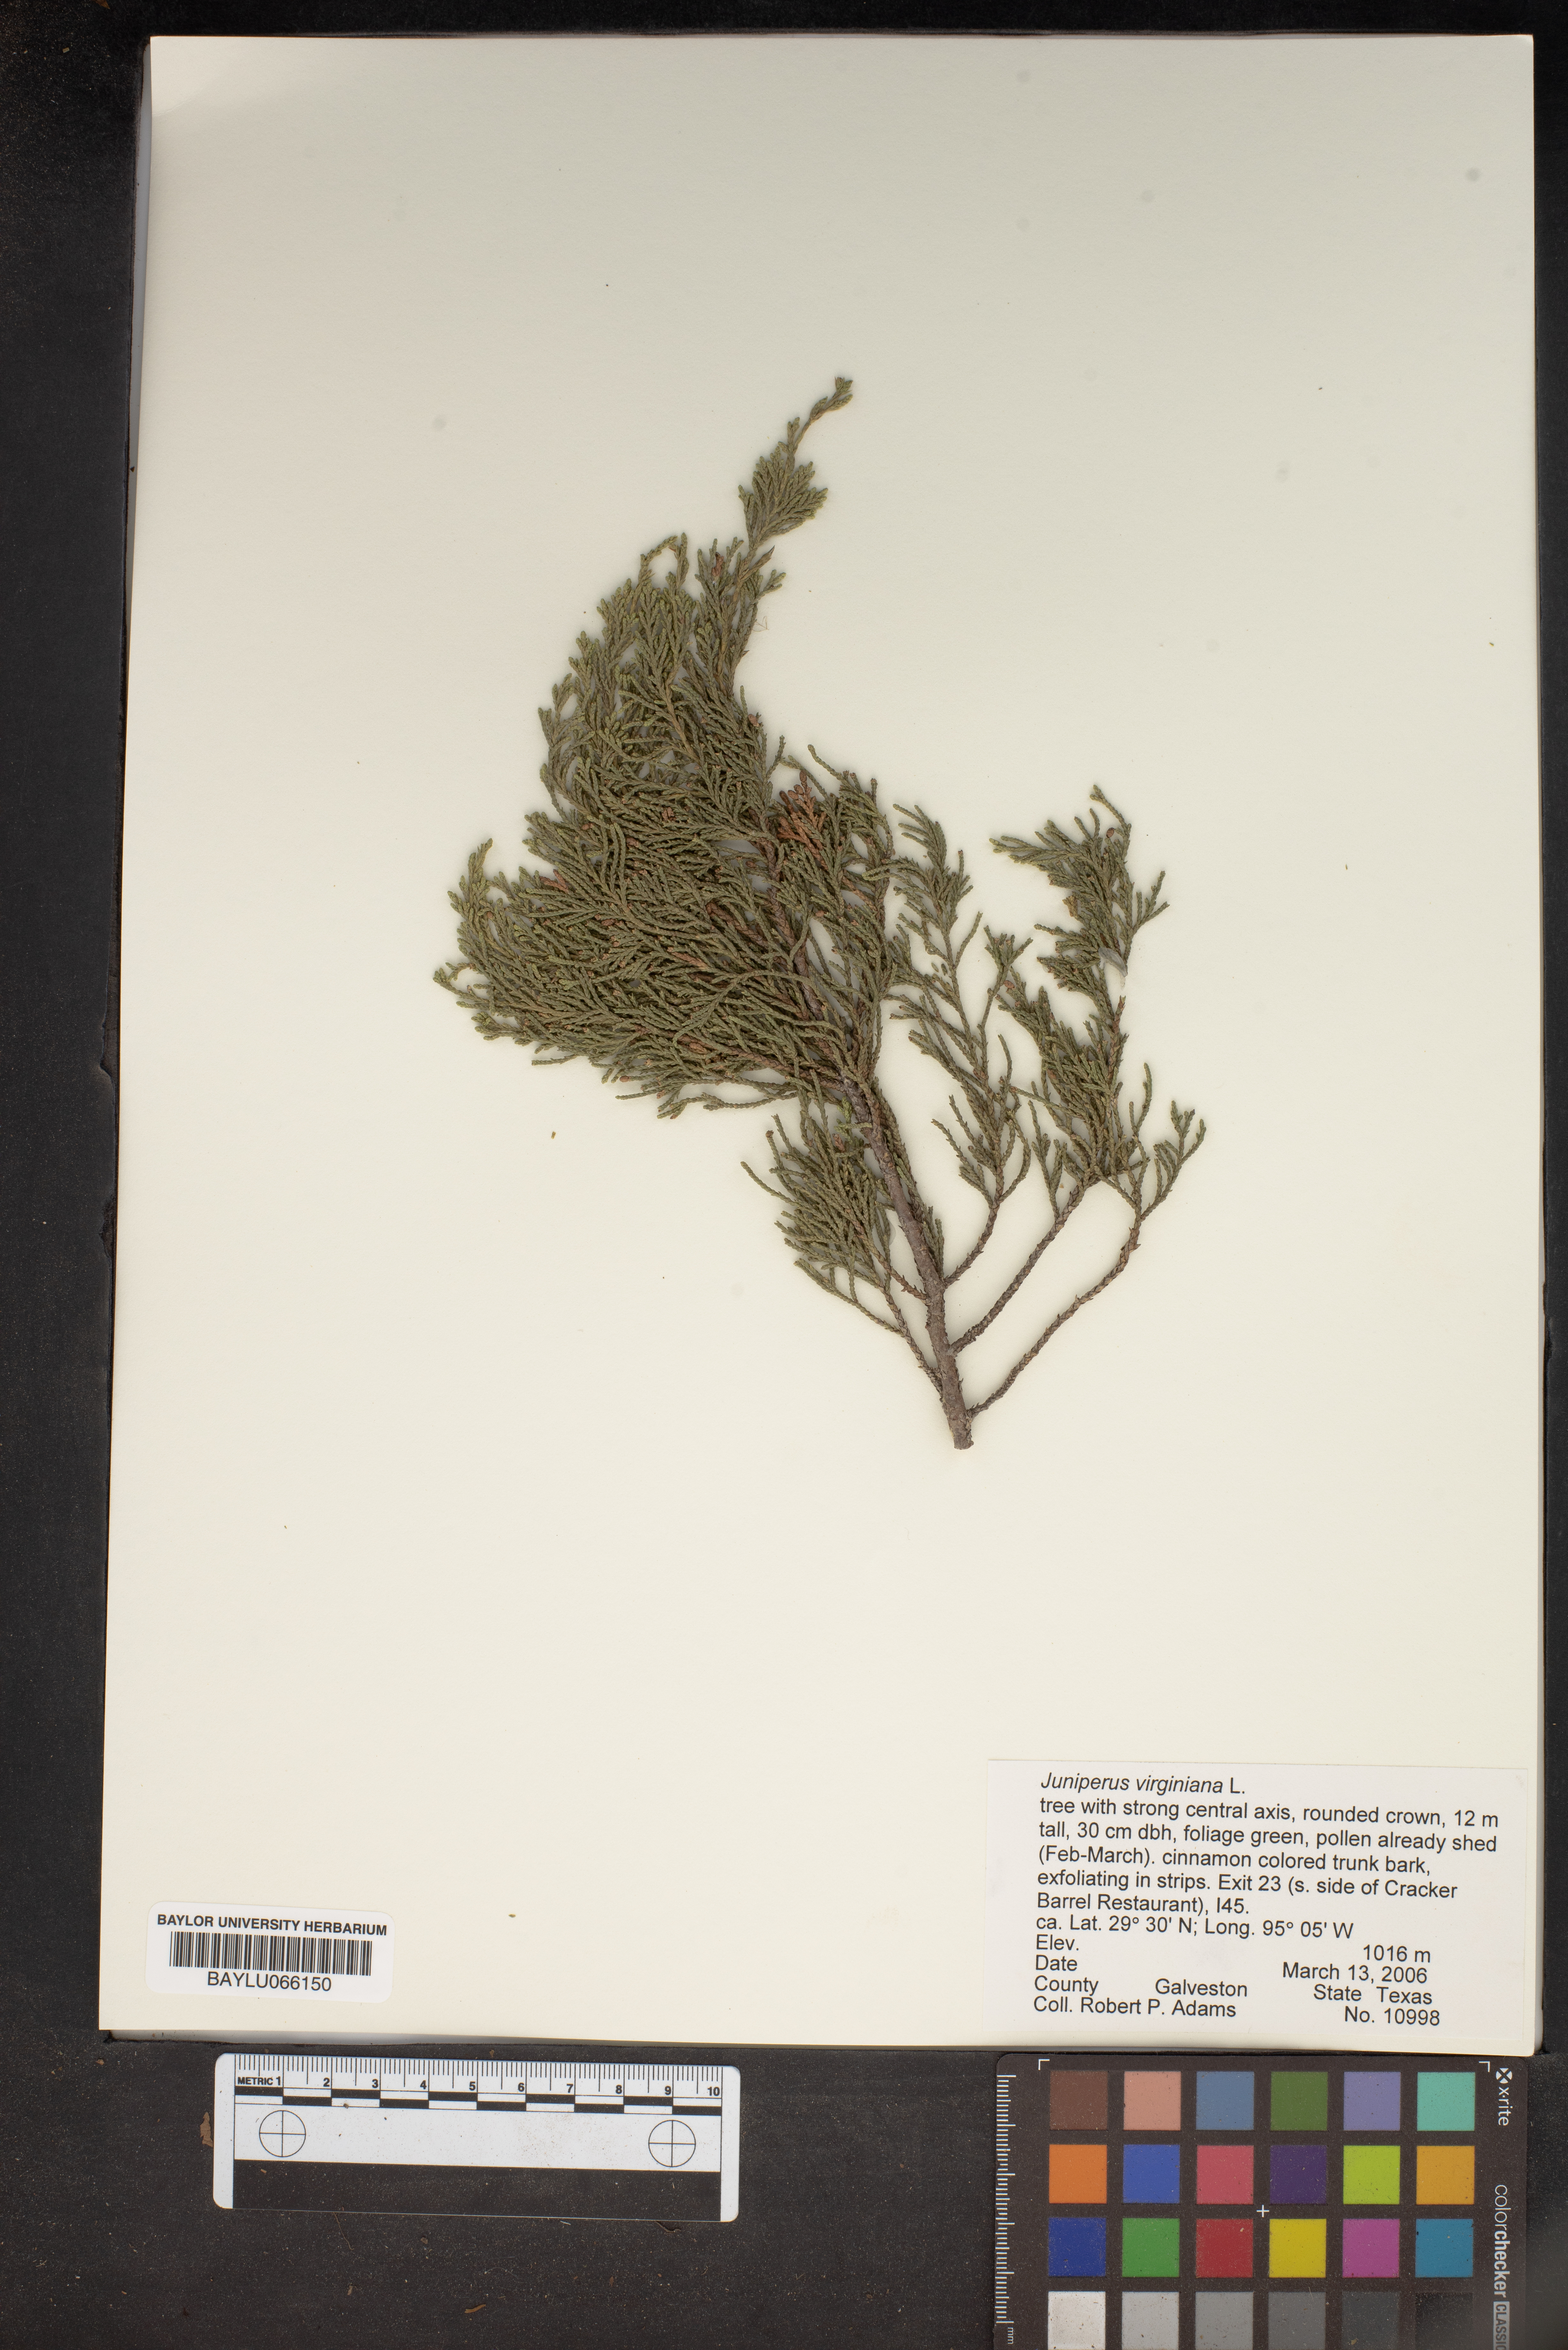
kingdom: Plantae
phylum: Tracheophyta
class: Pinopsida
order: Pinales
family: Cupressaceae
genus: Juniperus
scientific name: Juniperus virginiana
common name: Red juniper
